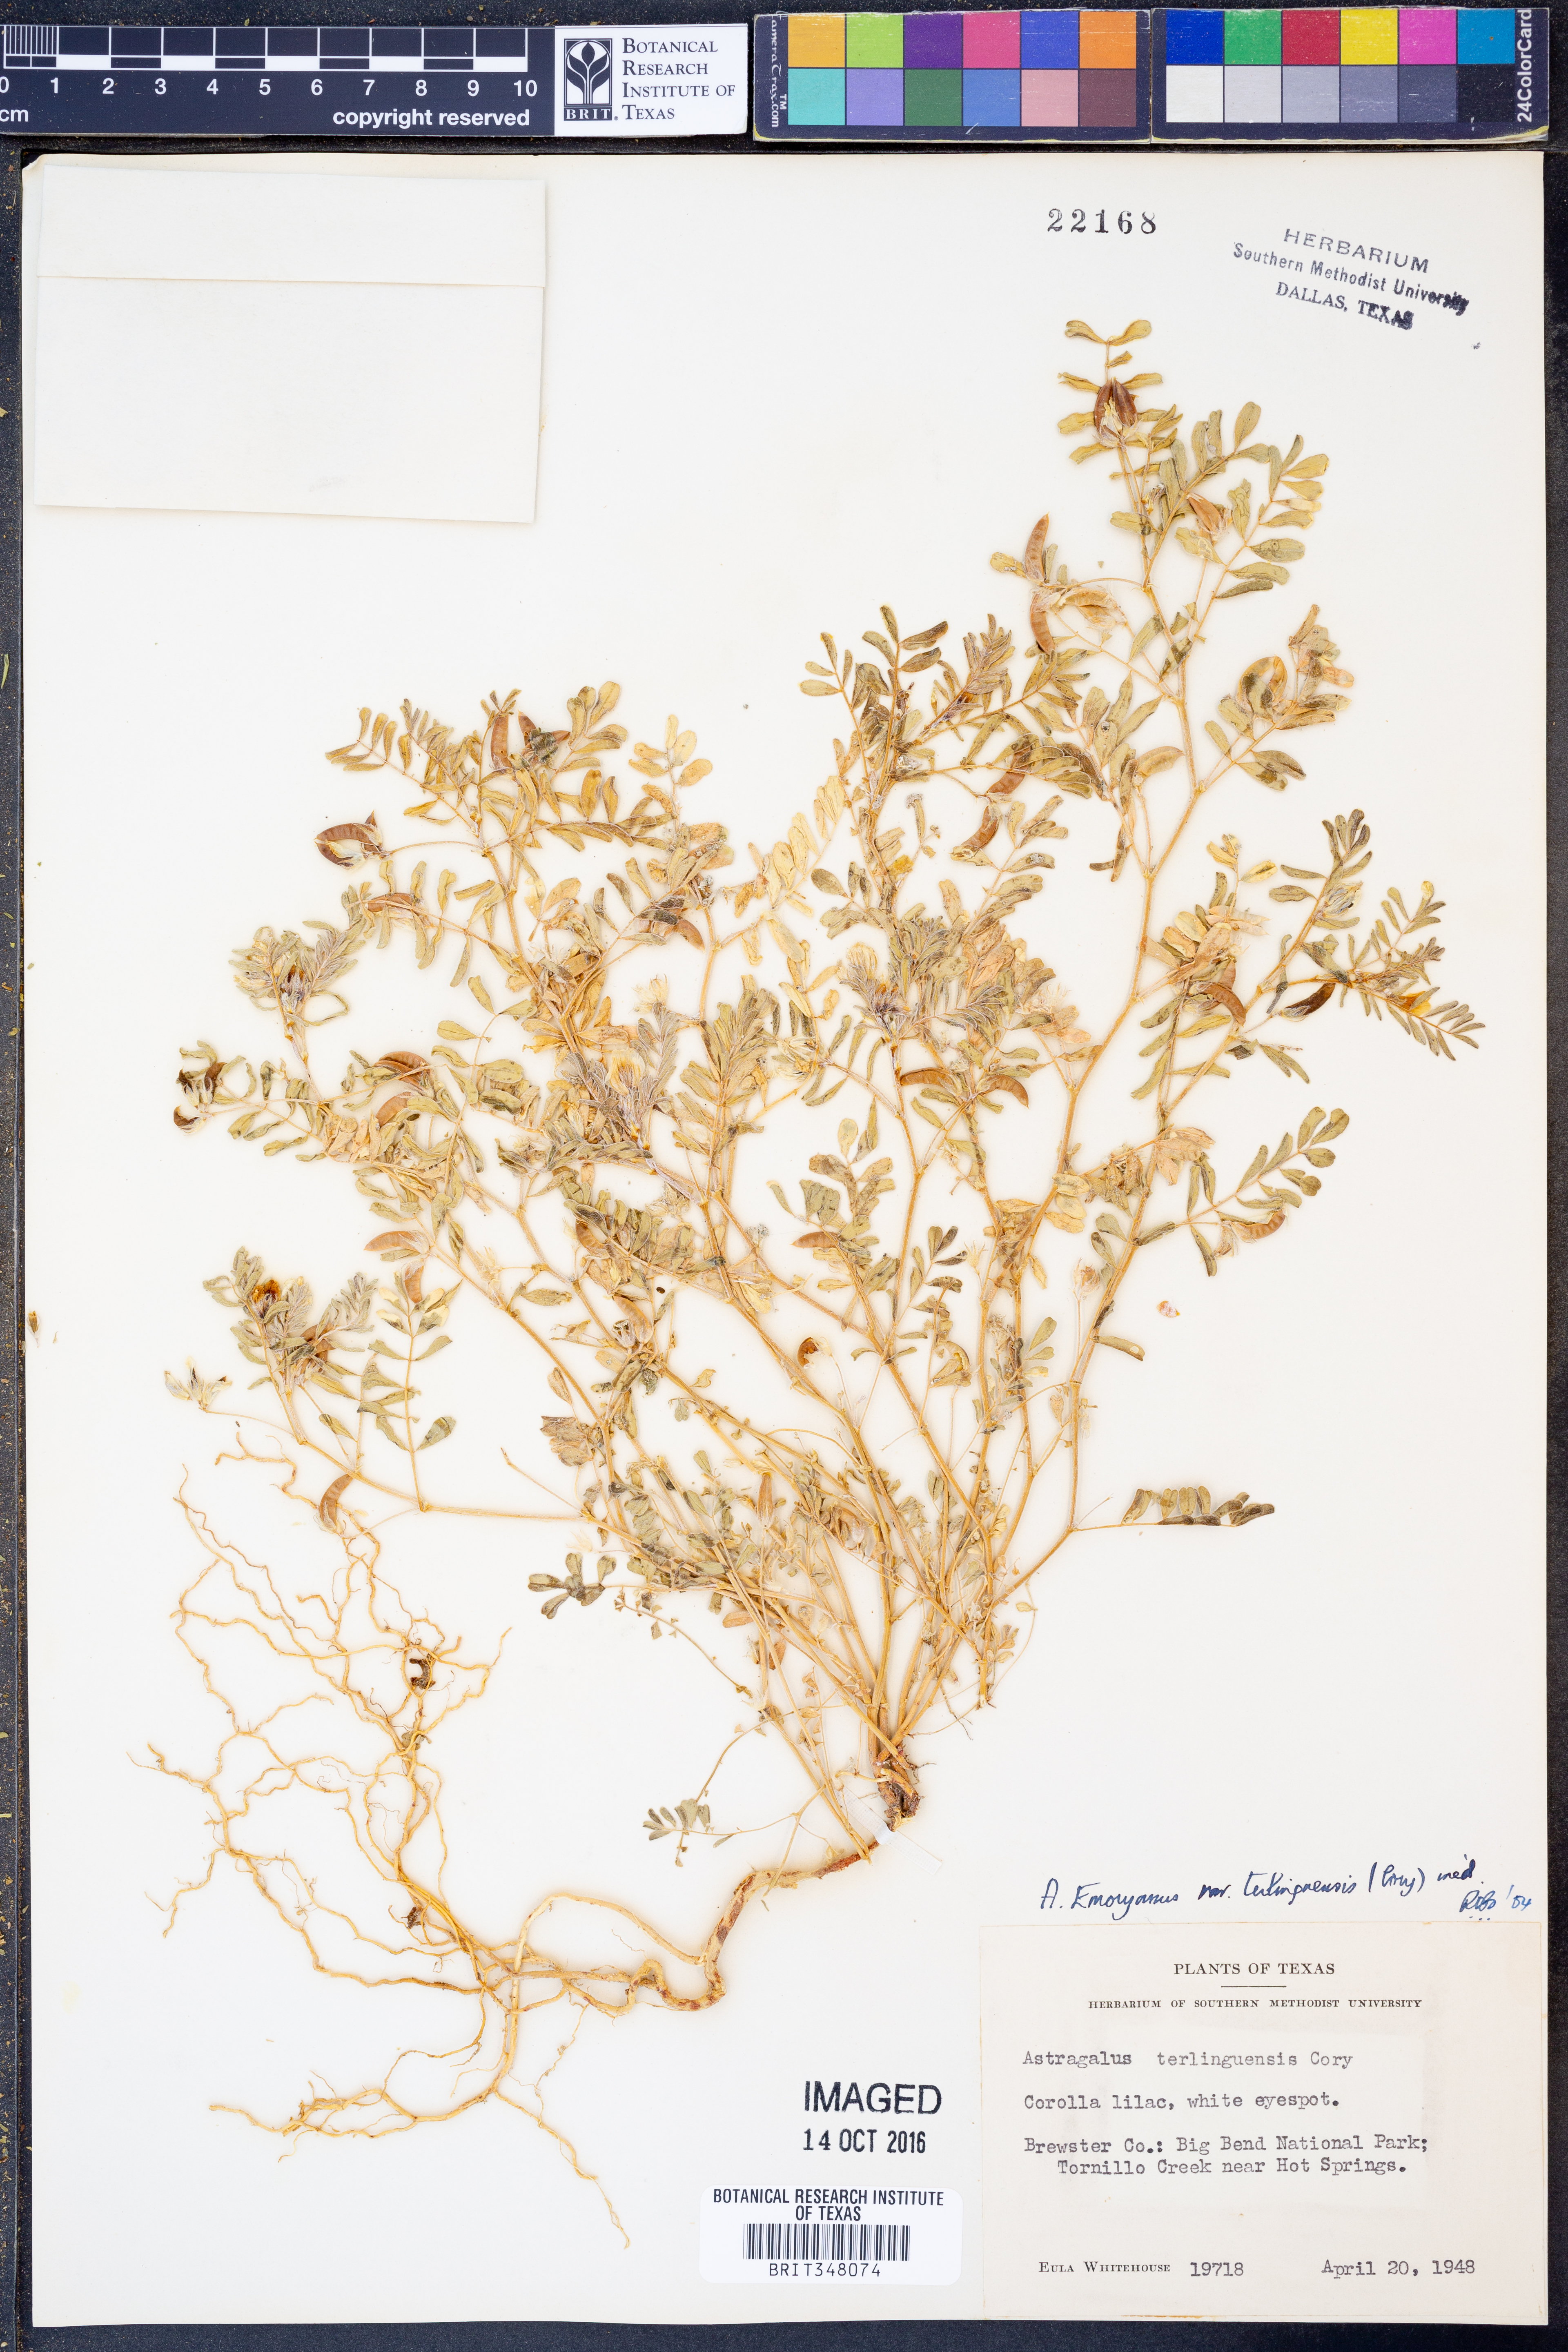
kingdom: Plantae
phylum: Tracheophyta
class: Magnoliopsida
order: Fabales
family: Fabaceae
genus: Astragalus
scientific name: Astragalus emoryanus
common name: Emory's milk-vetch
